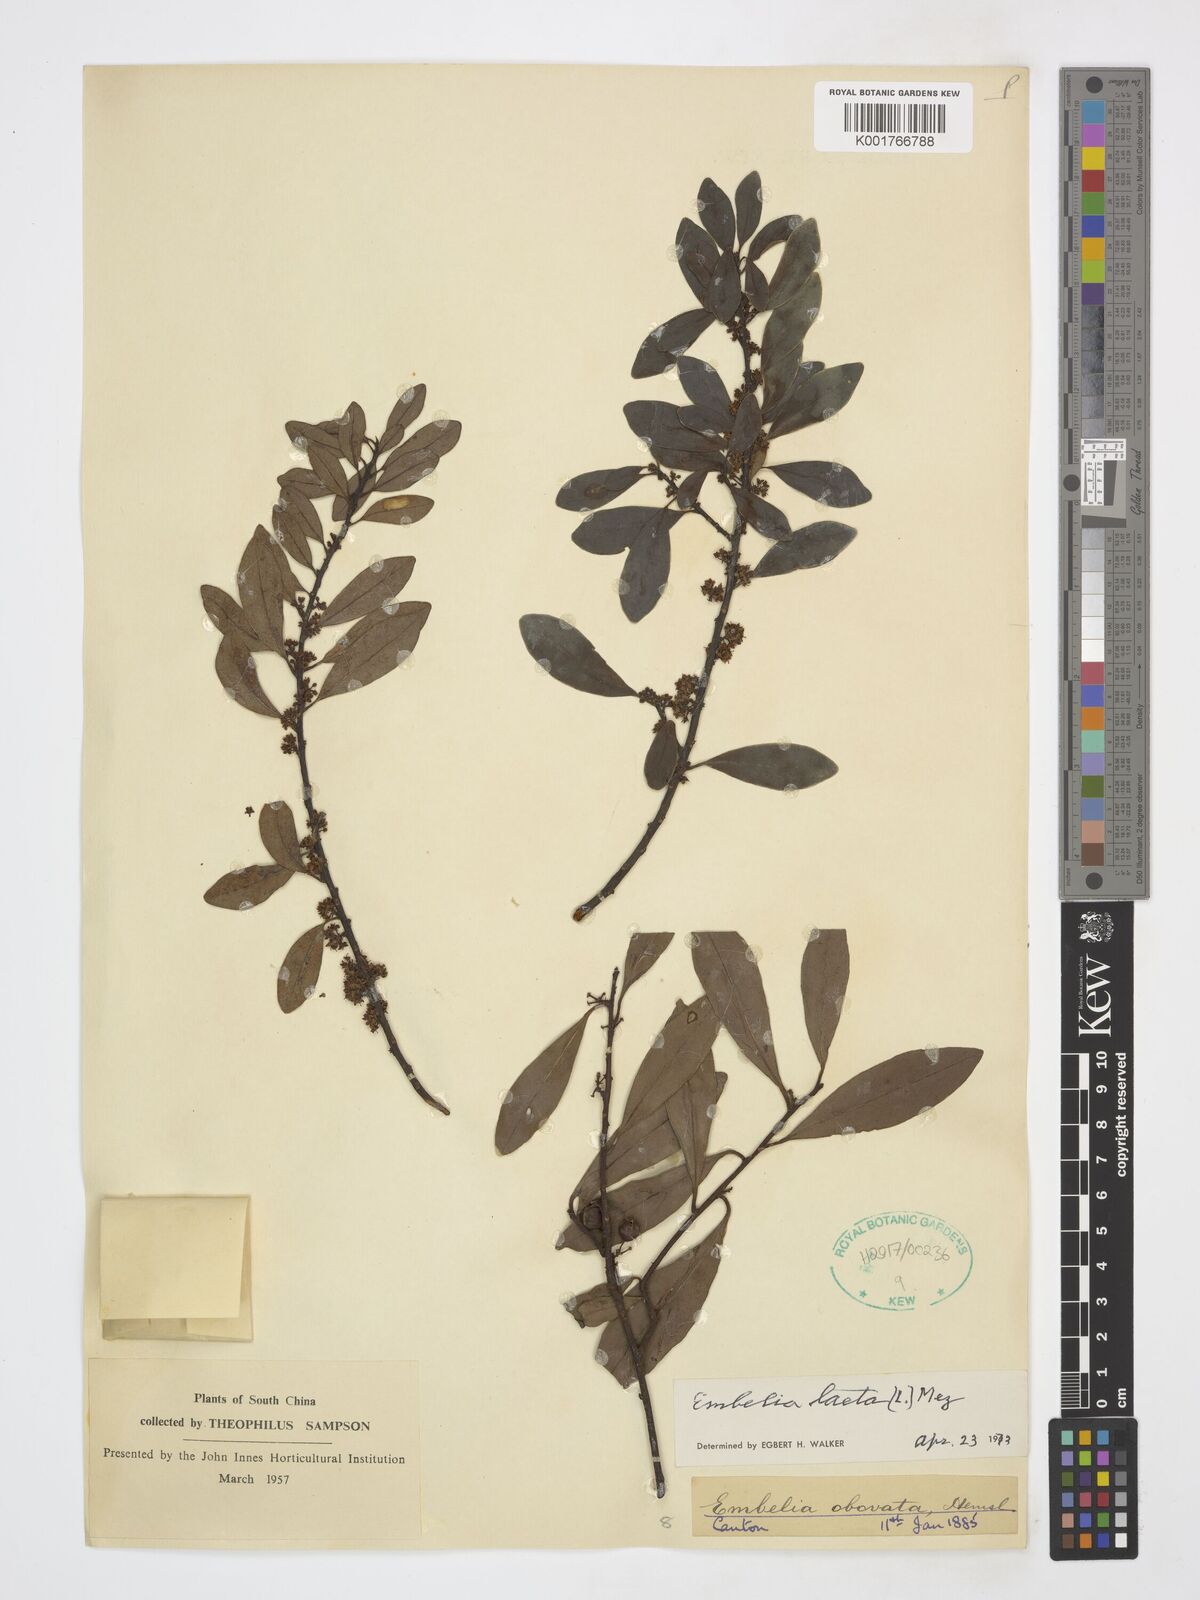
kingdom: Plantae
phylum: Tracheophyta
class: Magnoliopsida
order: Ericales
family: Primulaceae
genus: Embelia
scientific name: Embelia laeta
